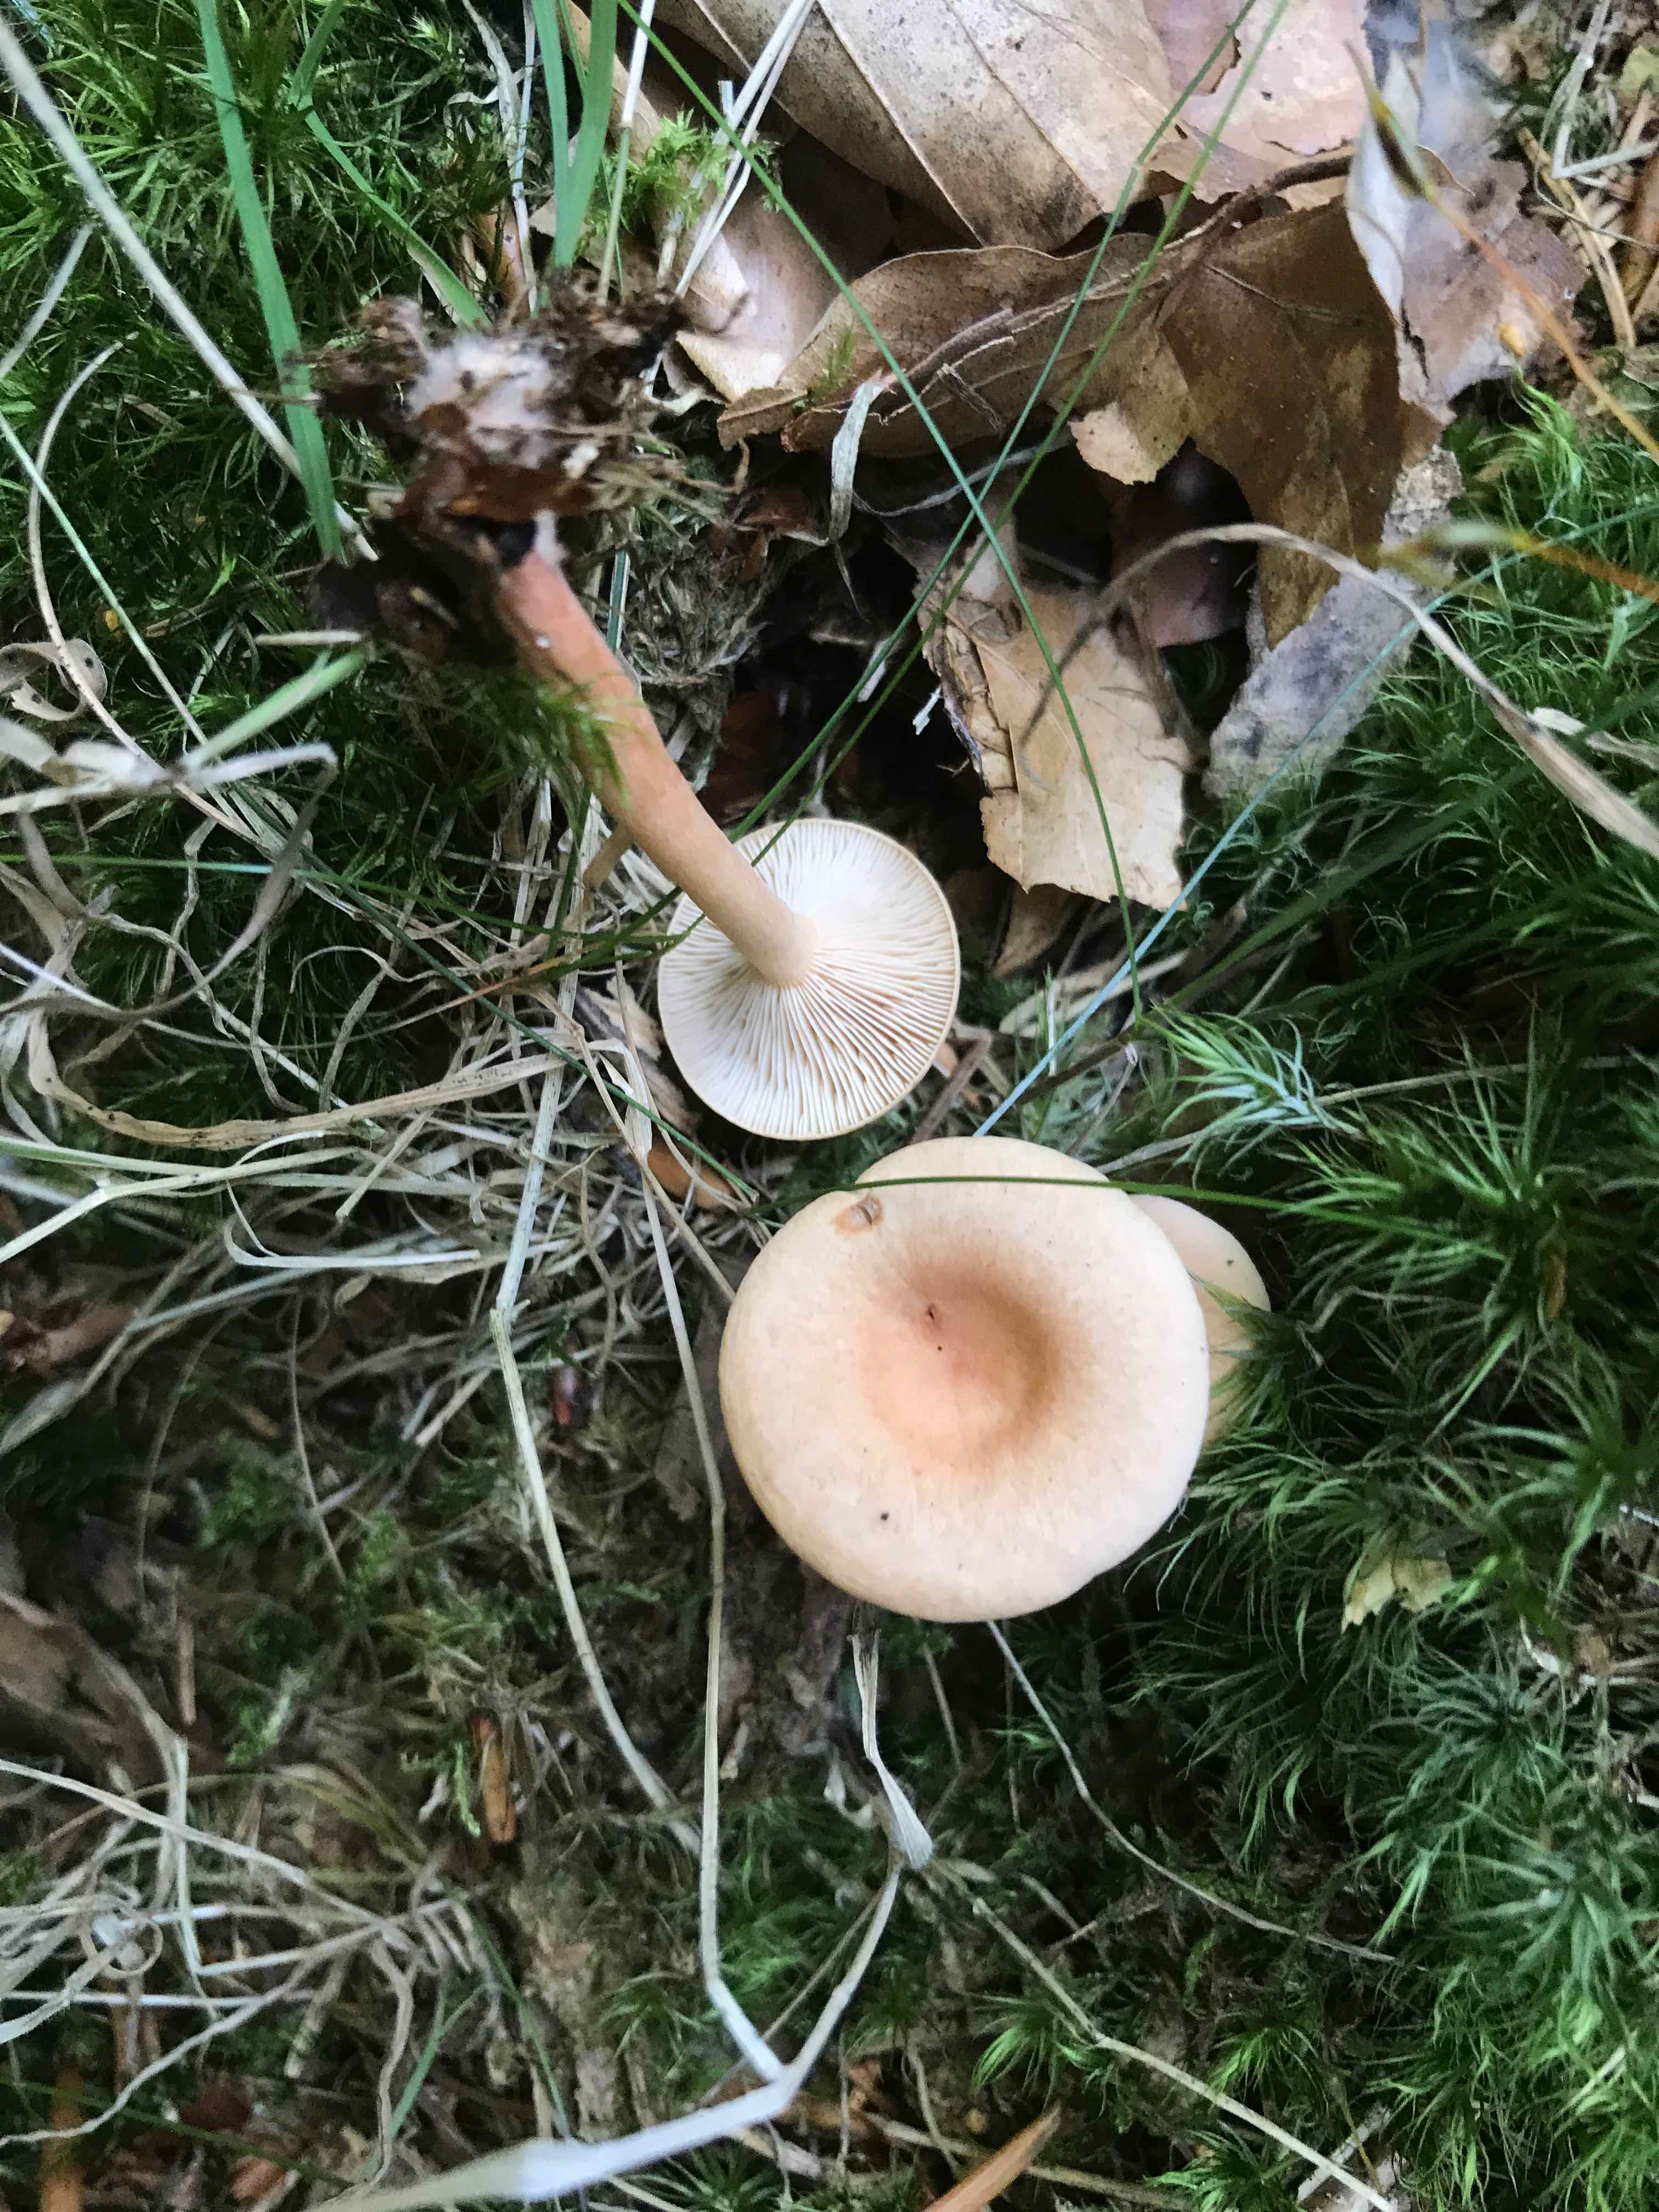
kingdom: Fungi
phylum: Basidiomycota
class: Agaricomycetes
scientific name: Agaricomycetes
